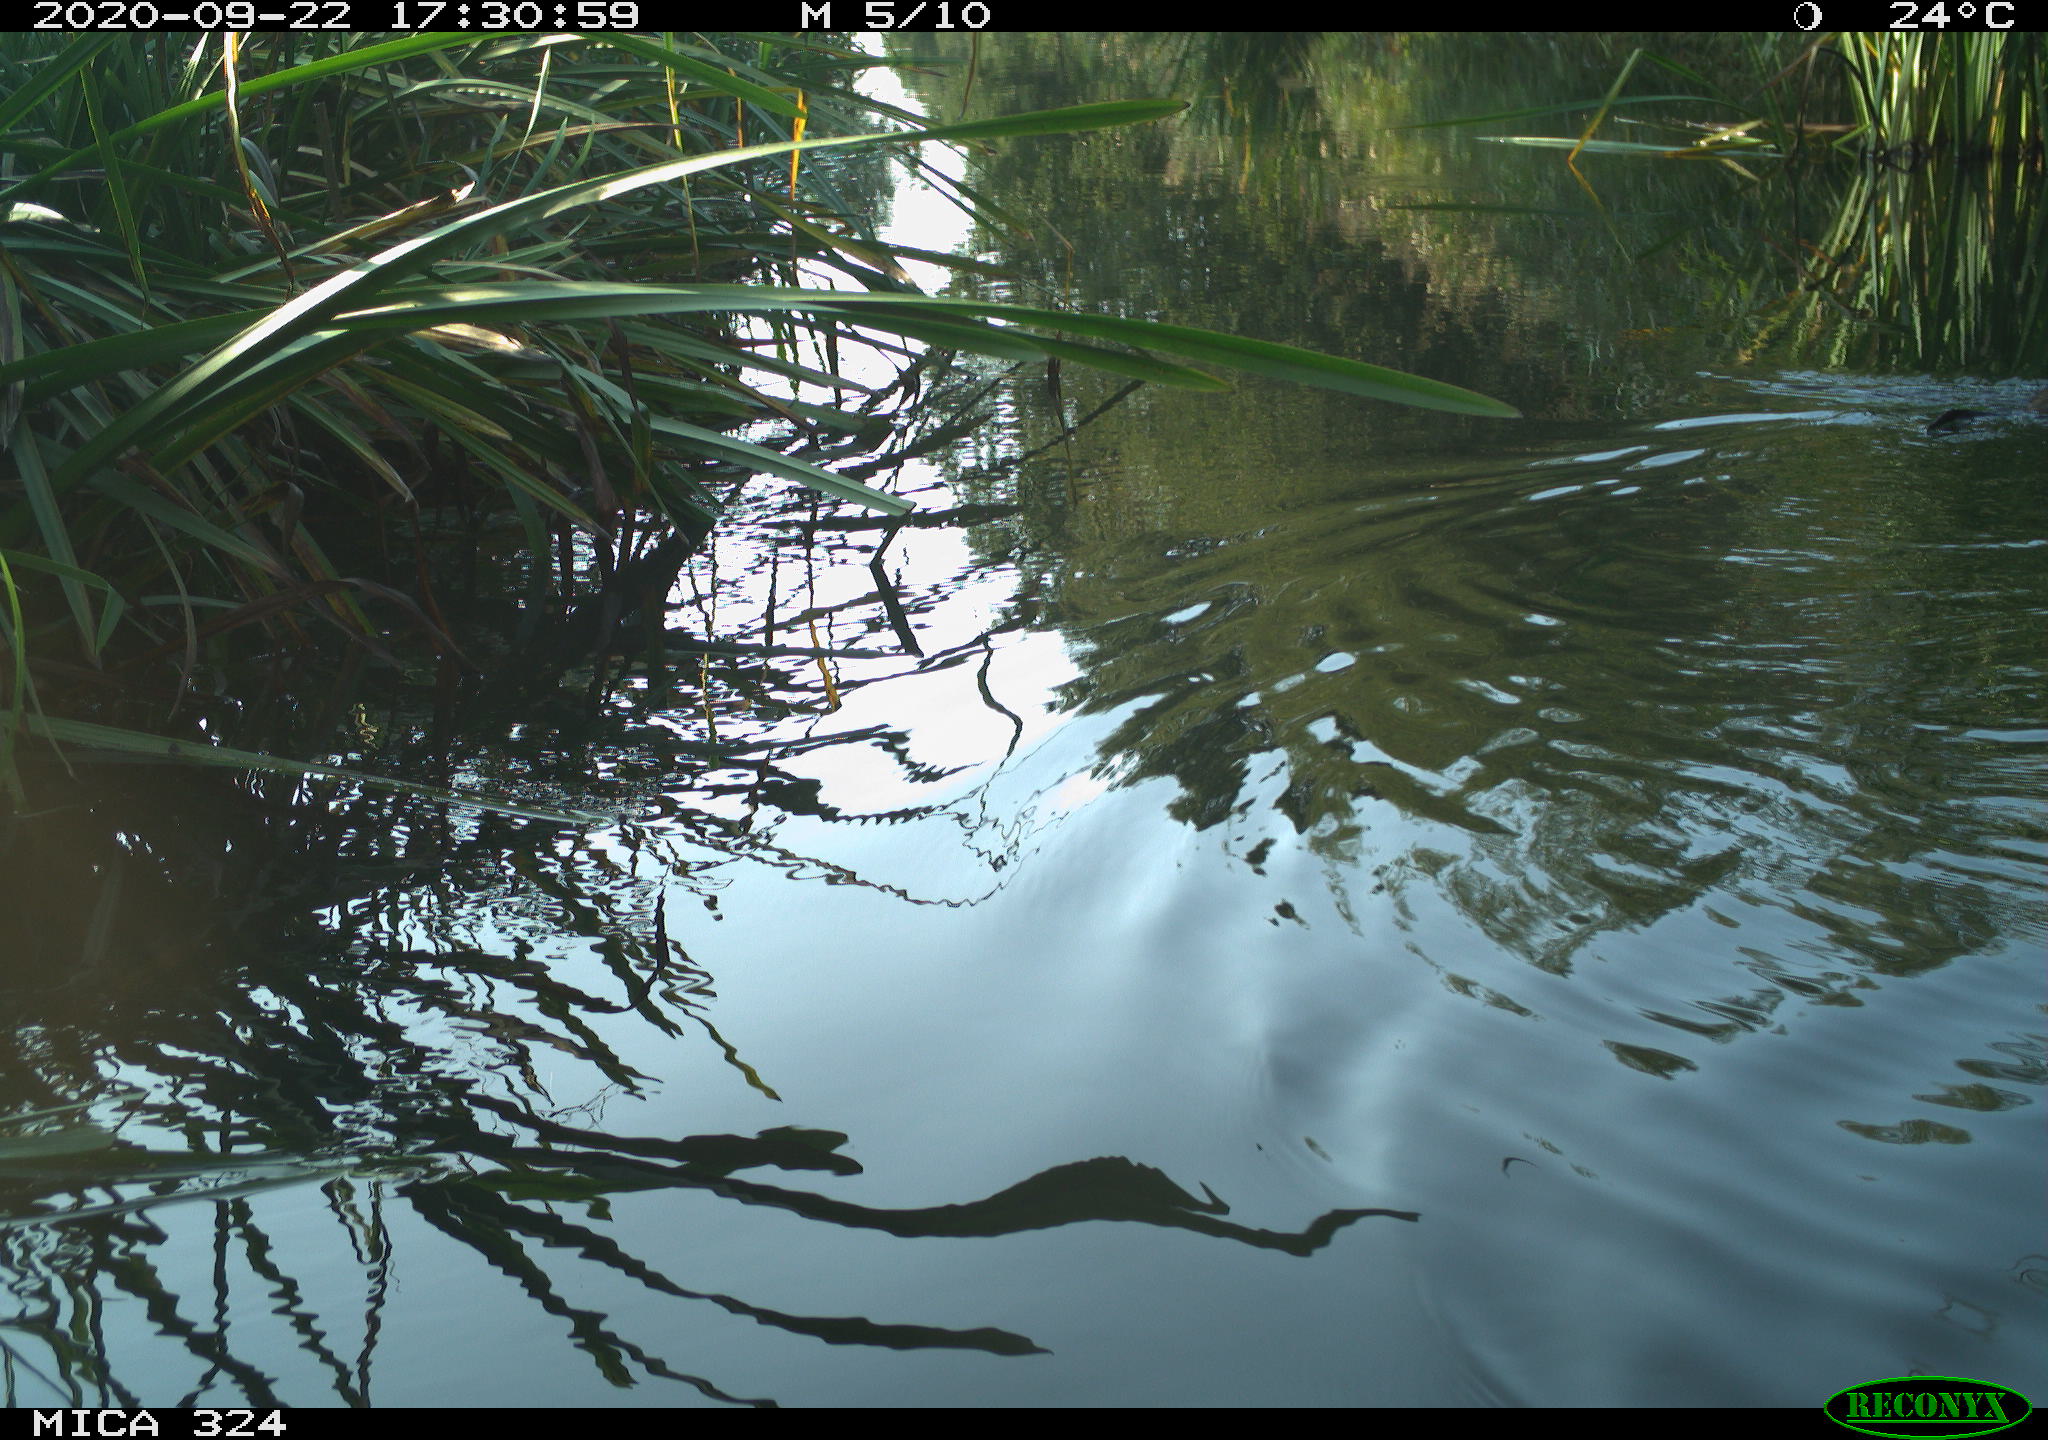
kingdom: Animalia
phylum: Chordata
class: Mammalia
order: Rodentia
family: Cricetidae
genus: Ondatra
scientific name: Ondatra zibethicus
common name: Muskrat
